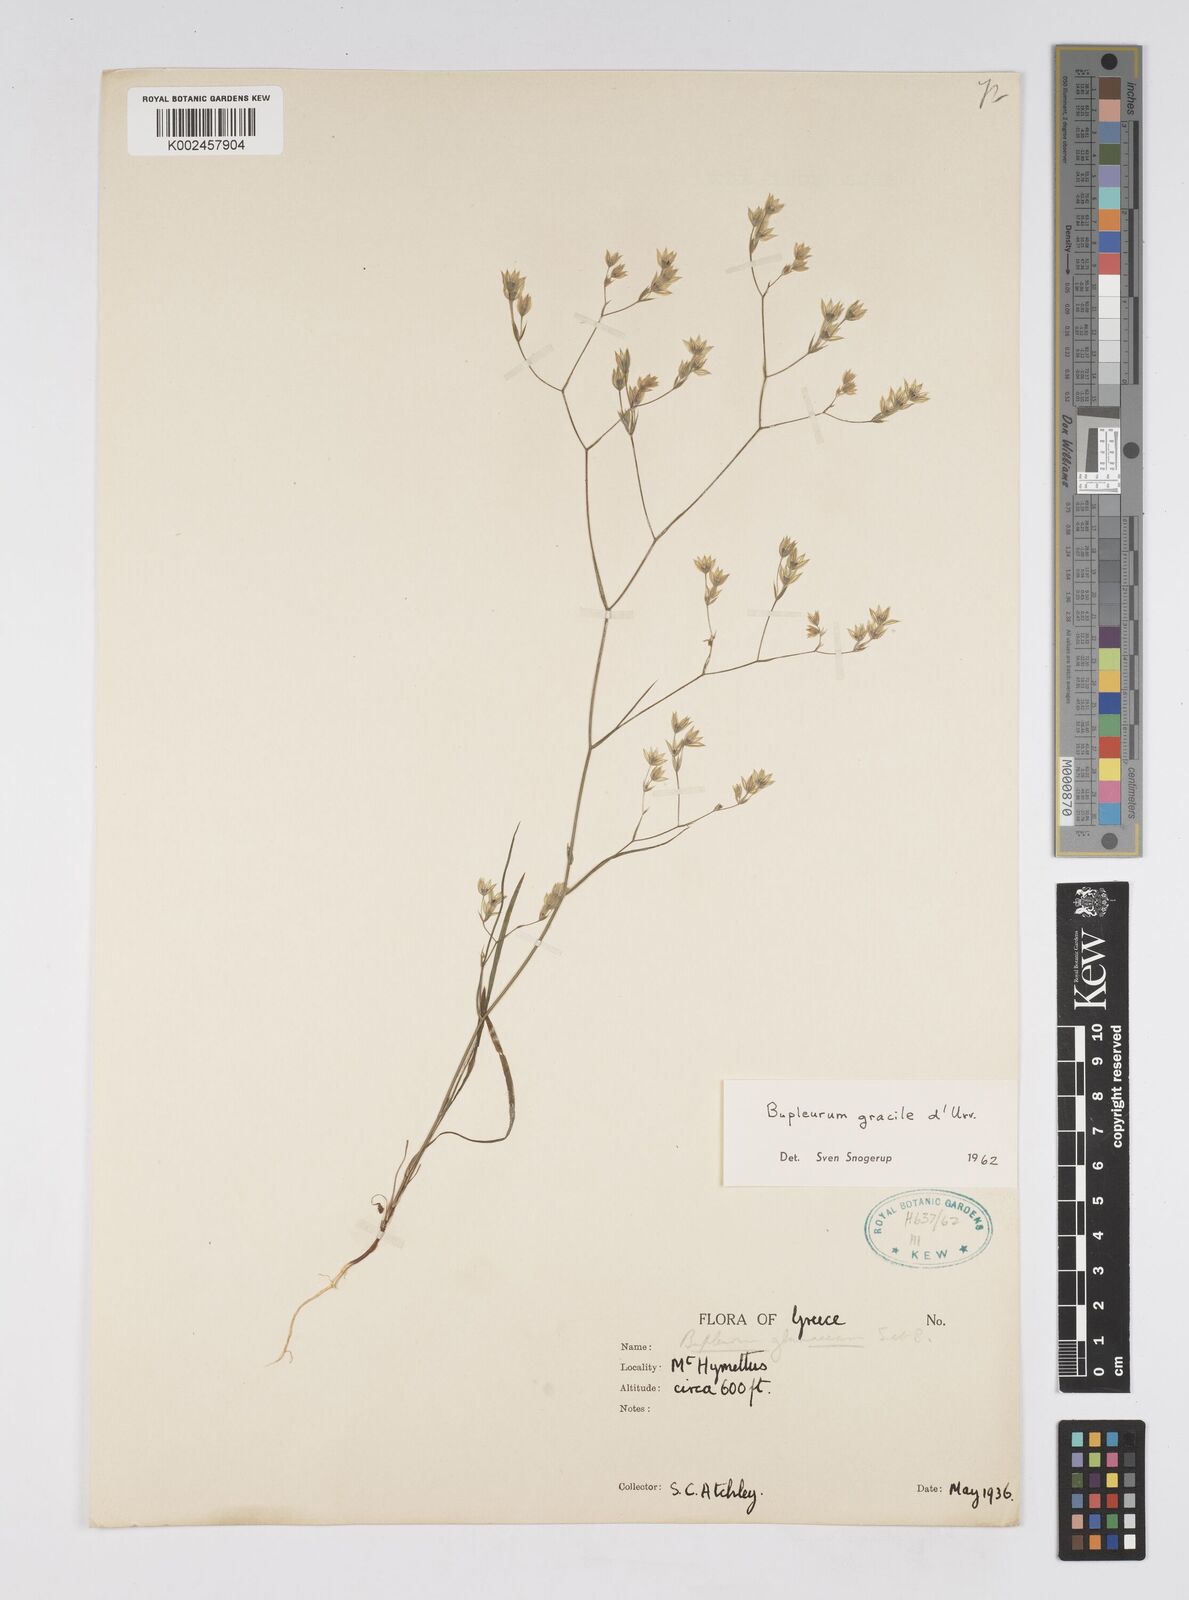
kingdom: Plantae
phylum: Tracheophyta
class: Magnoliopsida
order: Apiales
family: Apiaceae
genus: Bupleurum
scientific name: Bupleurum gracile
